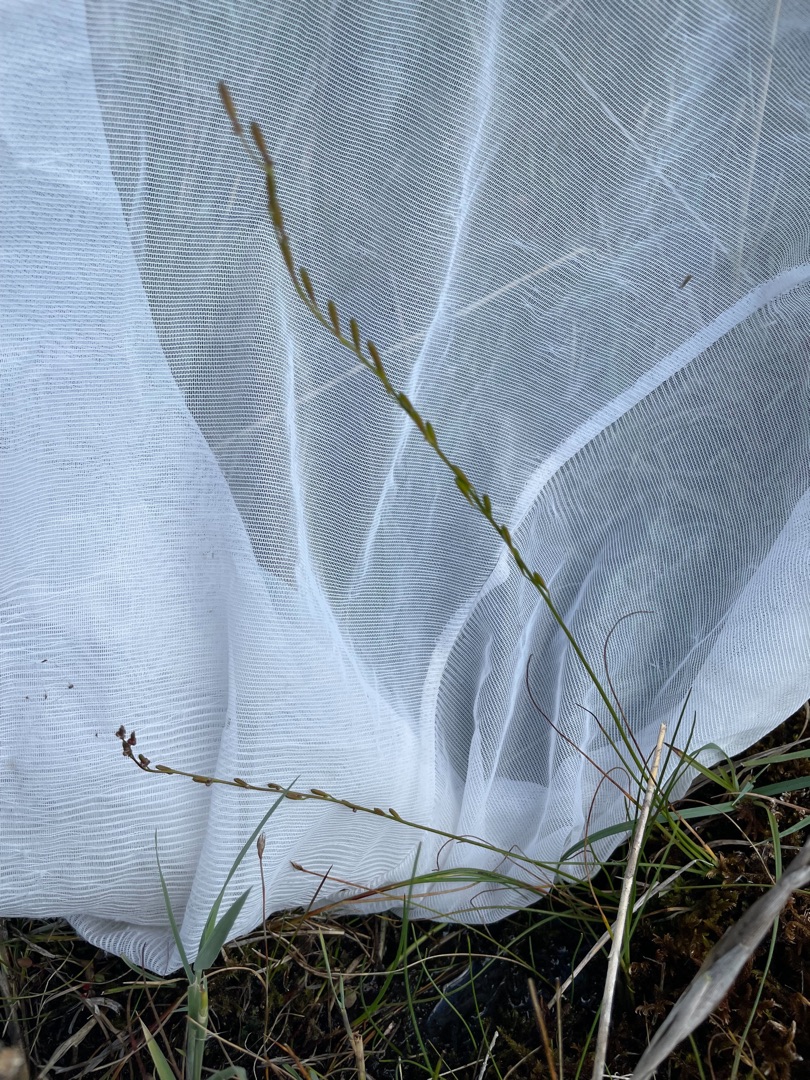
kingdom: Plantae
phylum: Tracheophyta
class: Liliopsida
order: Alismatales
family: Juncaginaceae
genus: Triglochin
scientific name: Triglochin palustris
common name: Kær-trehage
